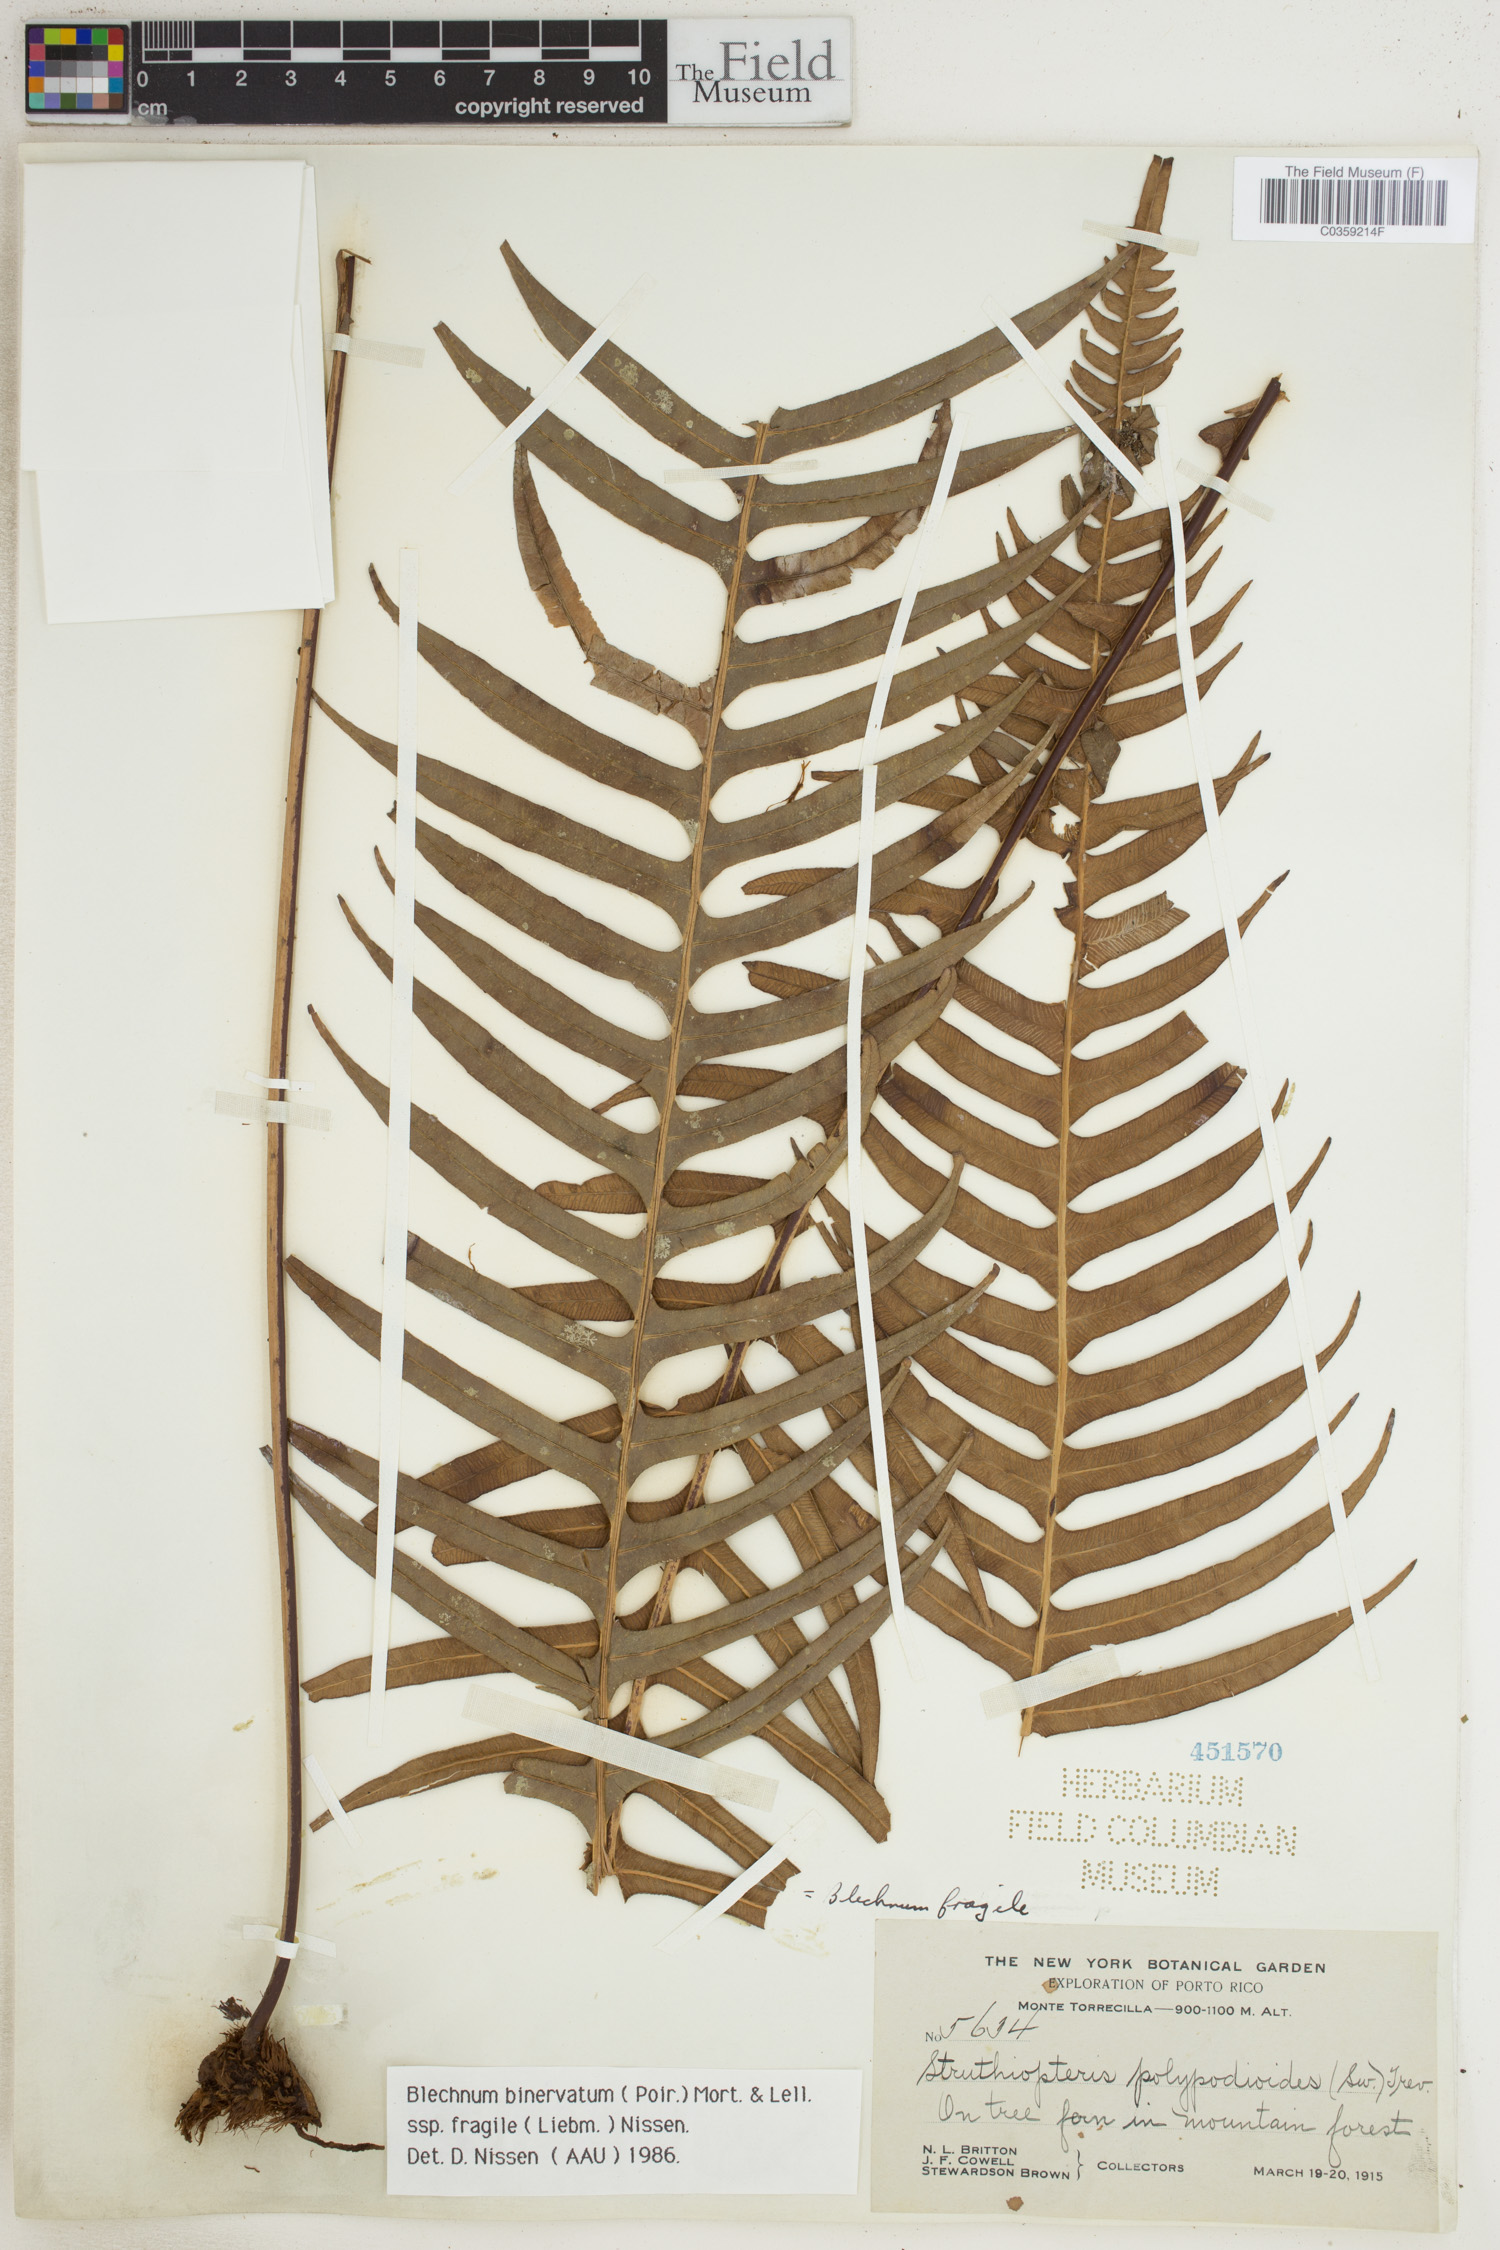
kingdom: Plantae
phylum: Tracheophyta
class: Polypodiopsida
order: Polypodiales
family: Blechnaceae
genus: Lomaridium
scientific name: Lomaridium binervatum
